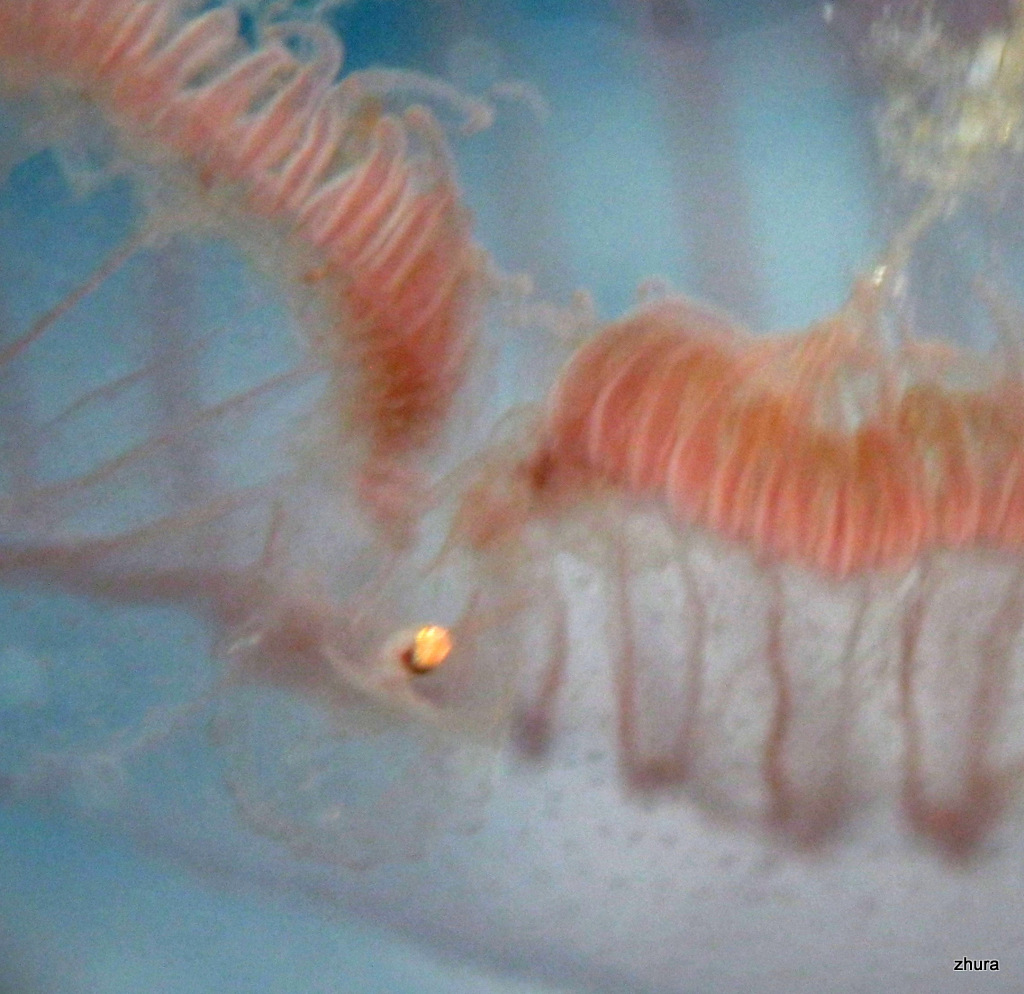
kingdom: Animalia
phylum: Cnidaria
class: Scyphozoa
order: Semaeostomeae
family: Ulmaridae
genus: Aurelia
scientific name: Aurelia aurita
